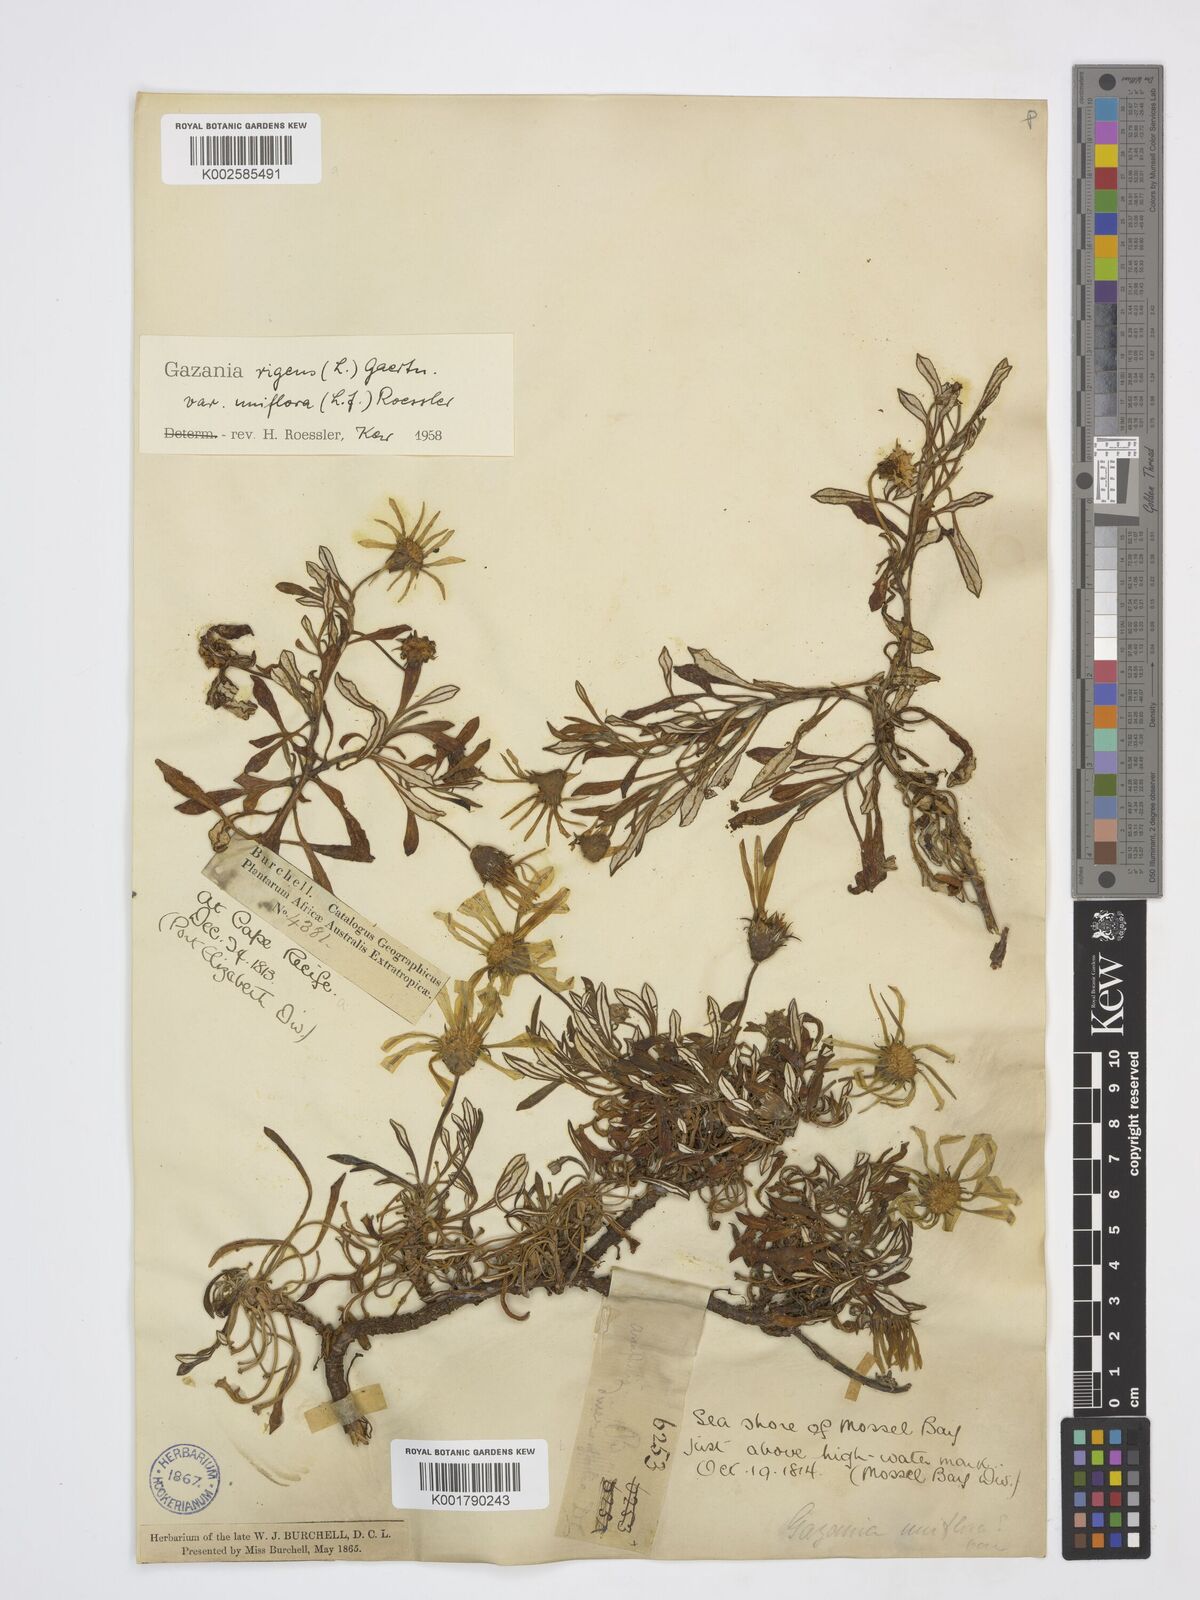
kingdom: Plantae
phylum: Tracheophyta
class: Magnoliopsida
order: Asterales
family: Asteraceae
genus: Gazania
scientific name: Gazania rigens
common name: Treasureflower
